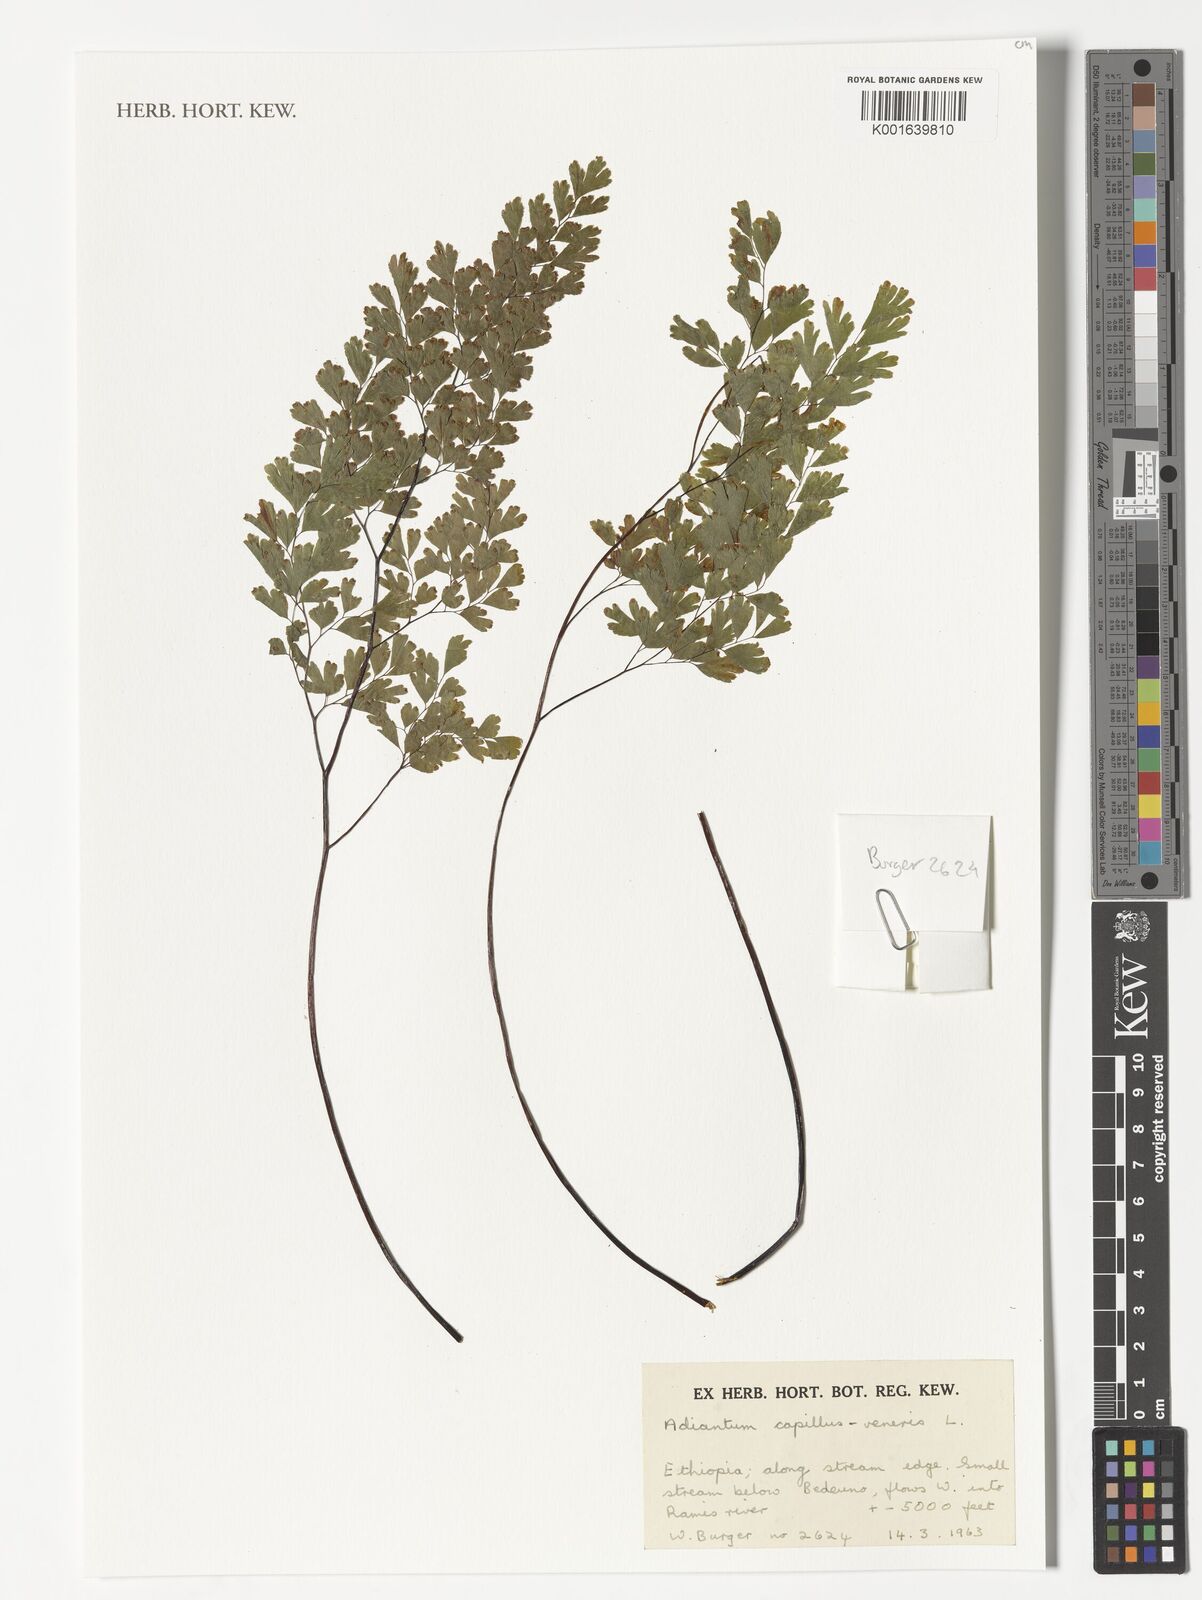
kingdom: Plantae
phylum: Tracheophyta
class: Polypodiopsida
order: Polypodiales
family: Pteridaceae
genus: Adiantum
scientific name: Adiantum capillus-veneris
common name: Maidenhair fern
